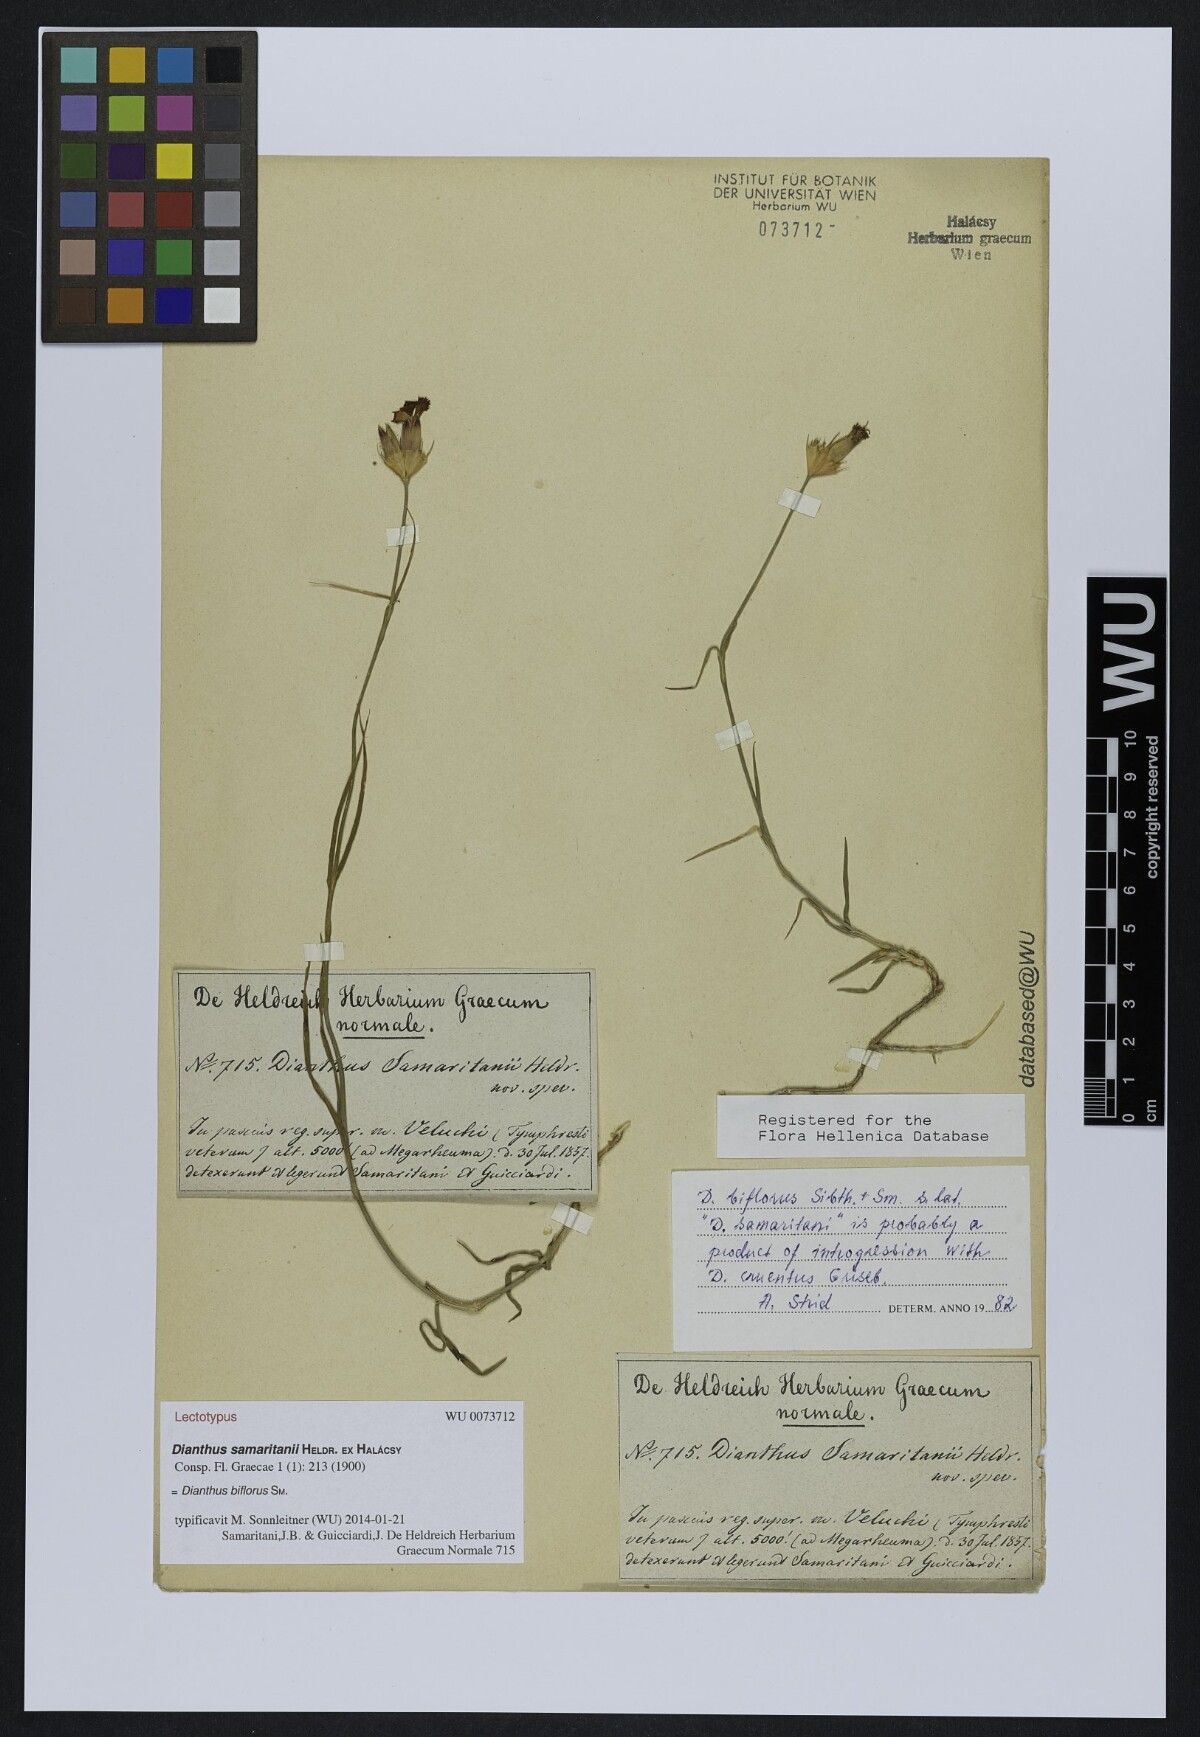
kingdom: Plantae
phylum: Tracheophyta
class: Magnoliopsida
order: Caryophyllales
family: Caryophyllaceae
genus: Dianthus
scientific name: Dianthus biflorus
